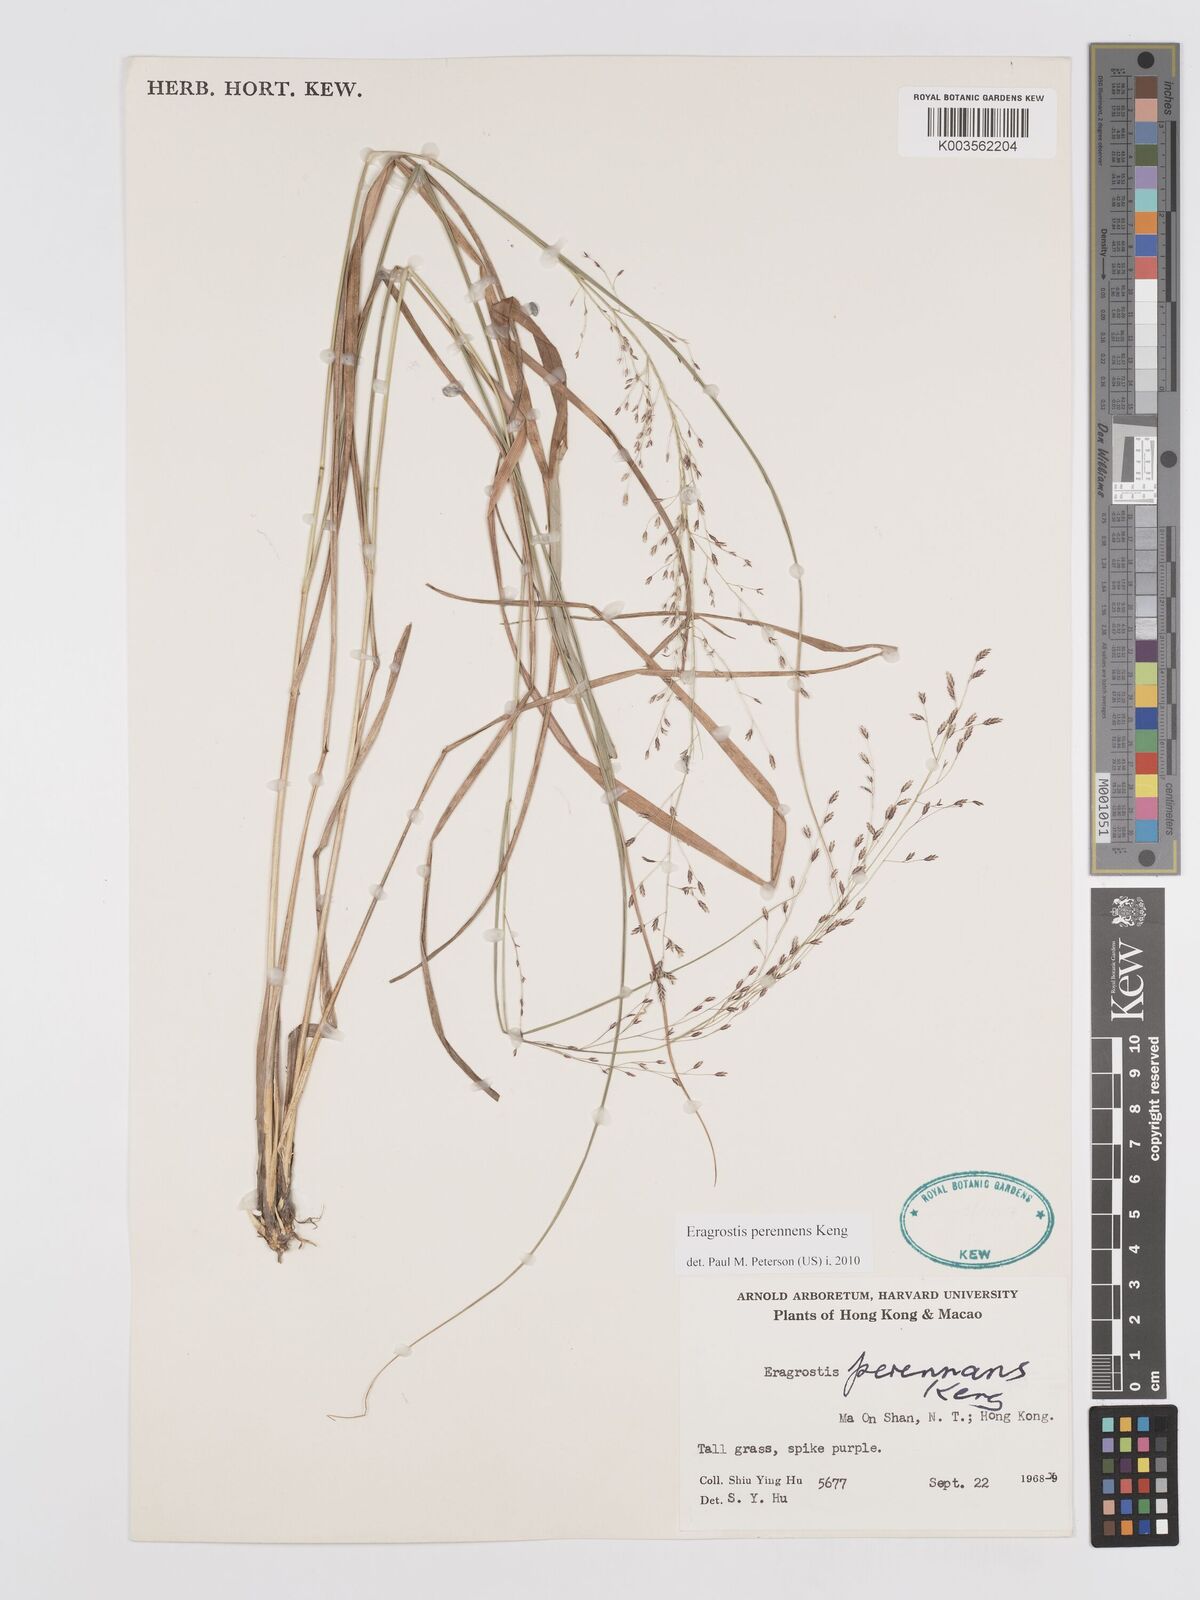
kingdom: Plantae
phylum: Tracheophyta
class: Liliopsida
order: Poales
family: Poaceae
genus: Eragrostis
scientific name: Eragrostis perennans
